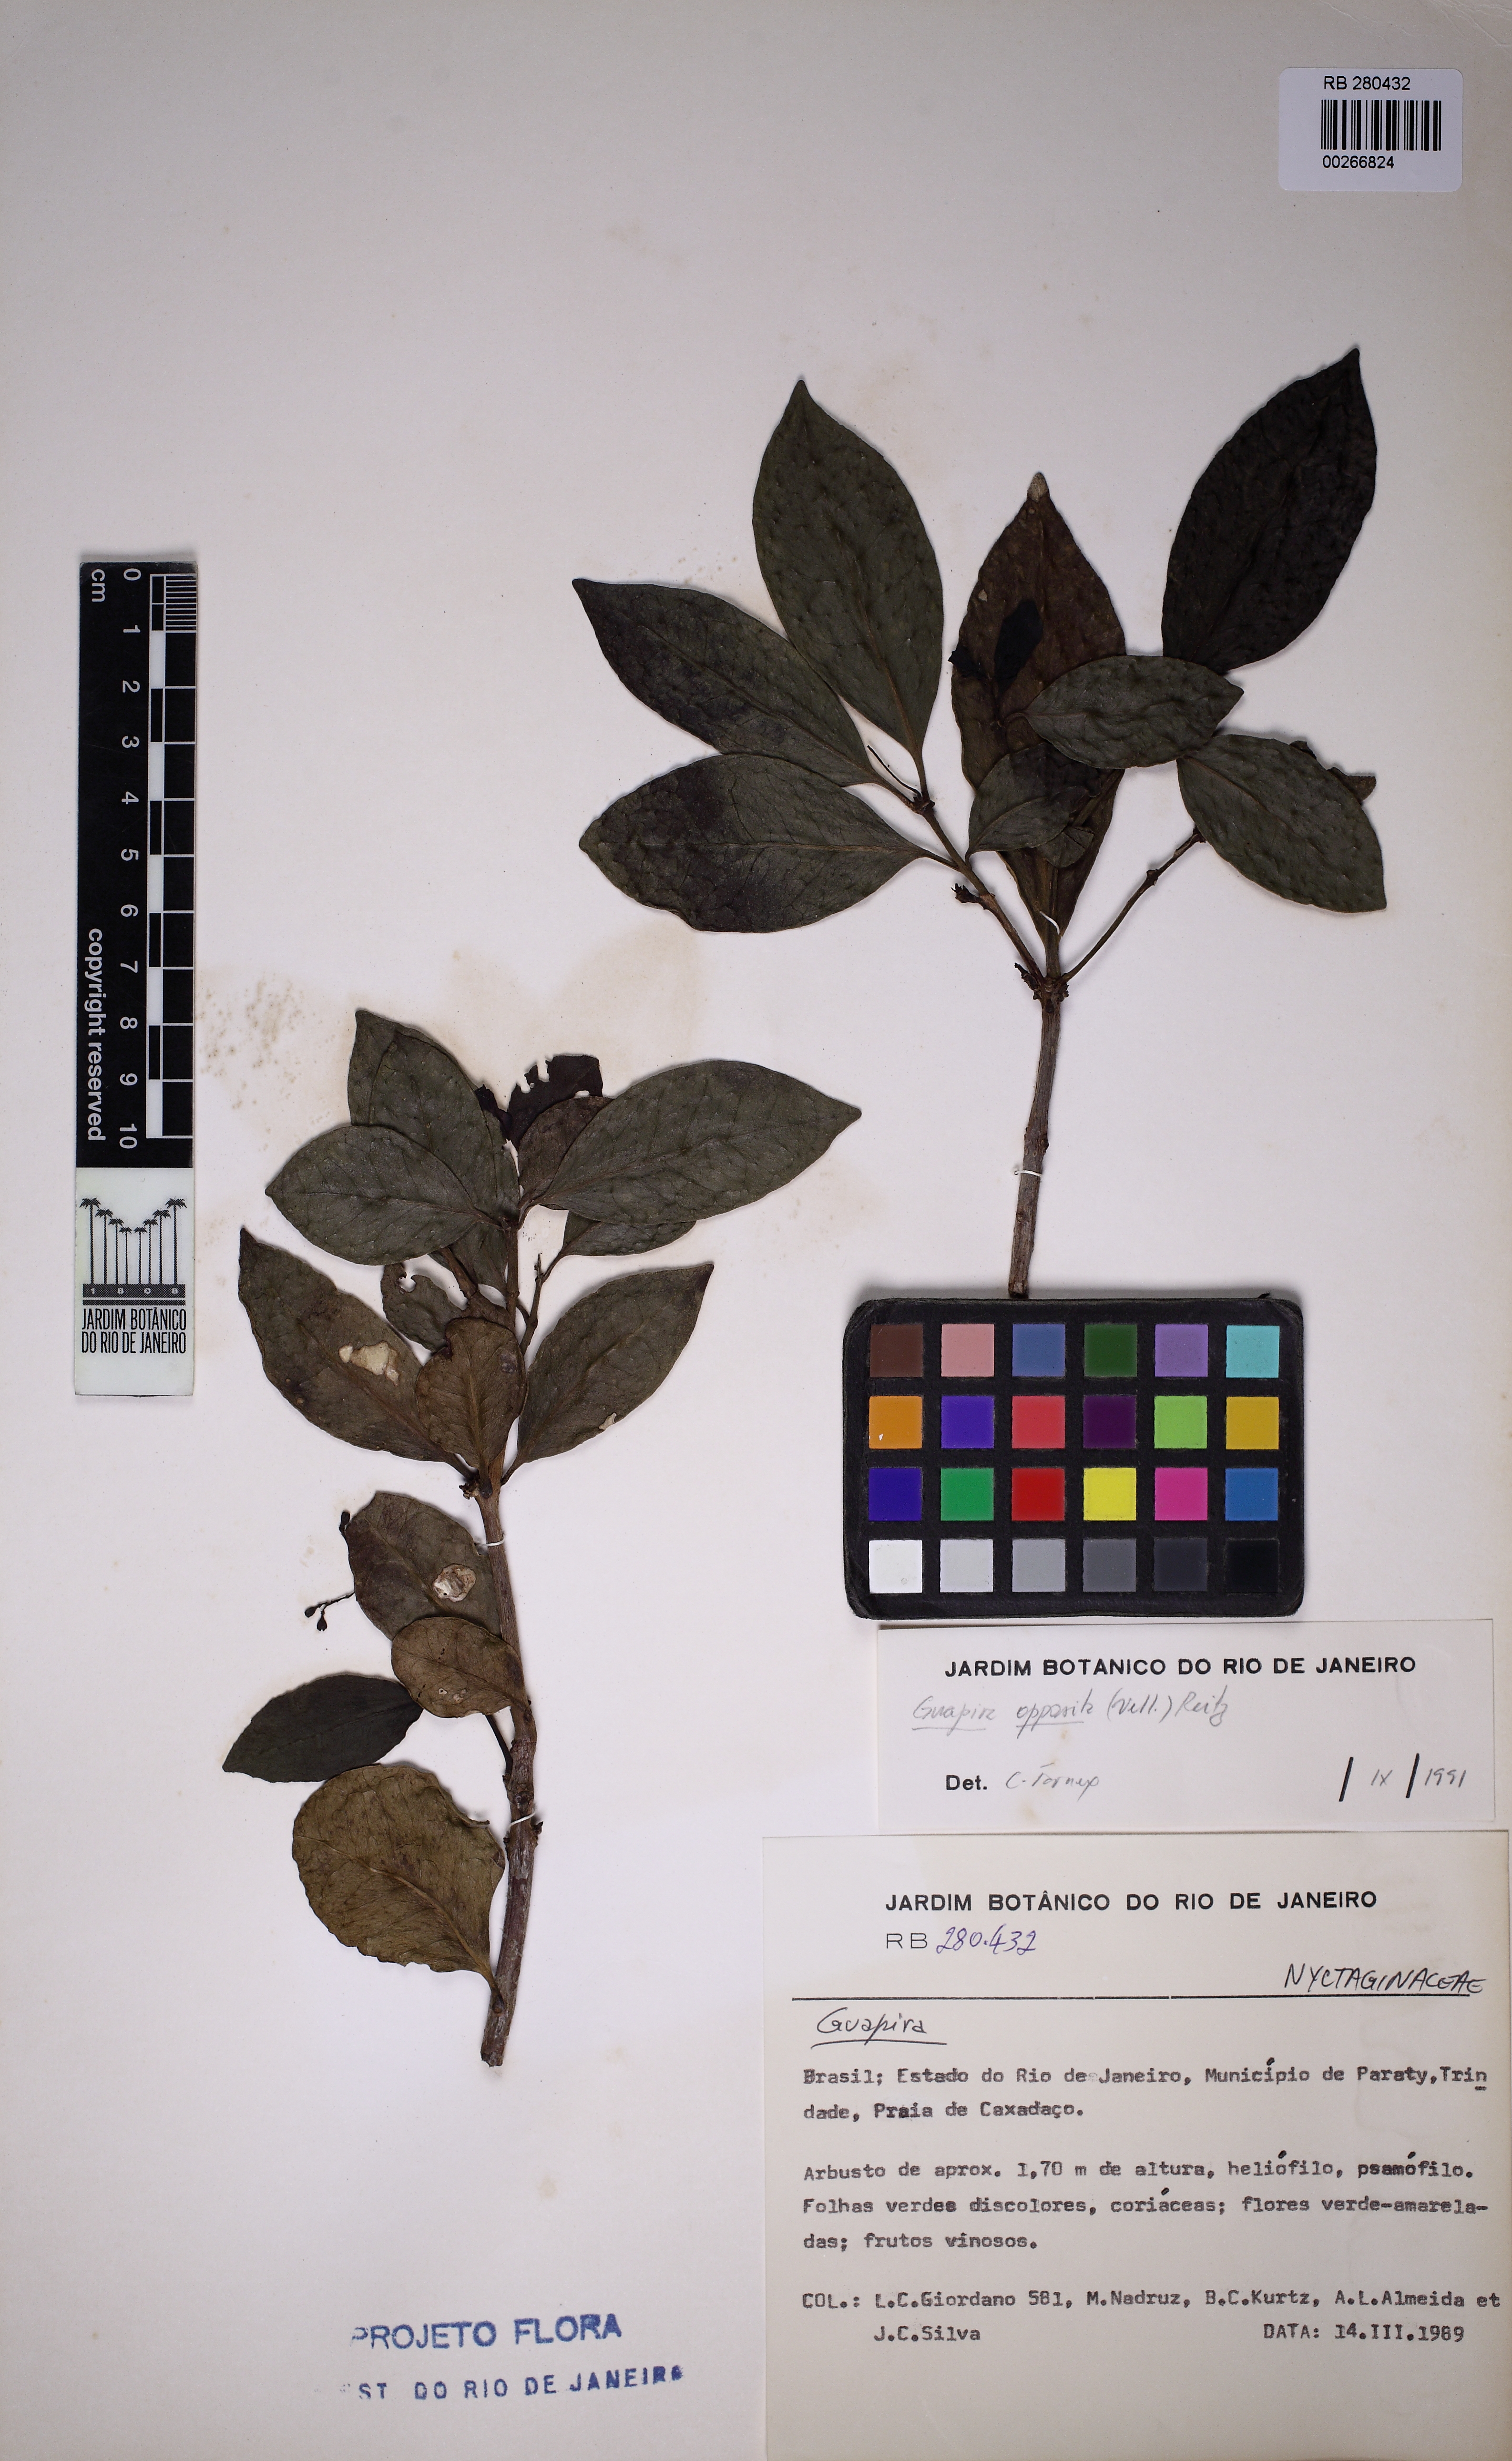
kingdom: Plantae
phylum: Tracheophyta
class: Magnoliopsida
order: Caryophyllales
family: Nyctaginaceae
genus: Guapira
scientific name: Guapira opposita
